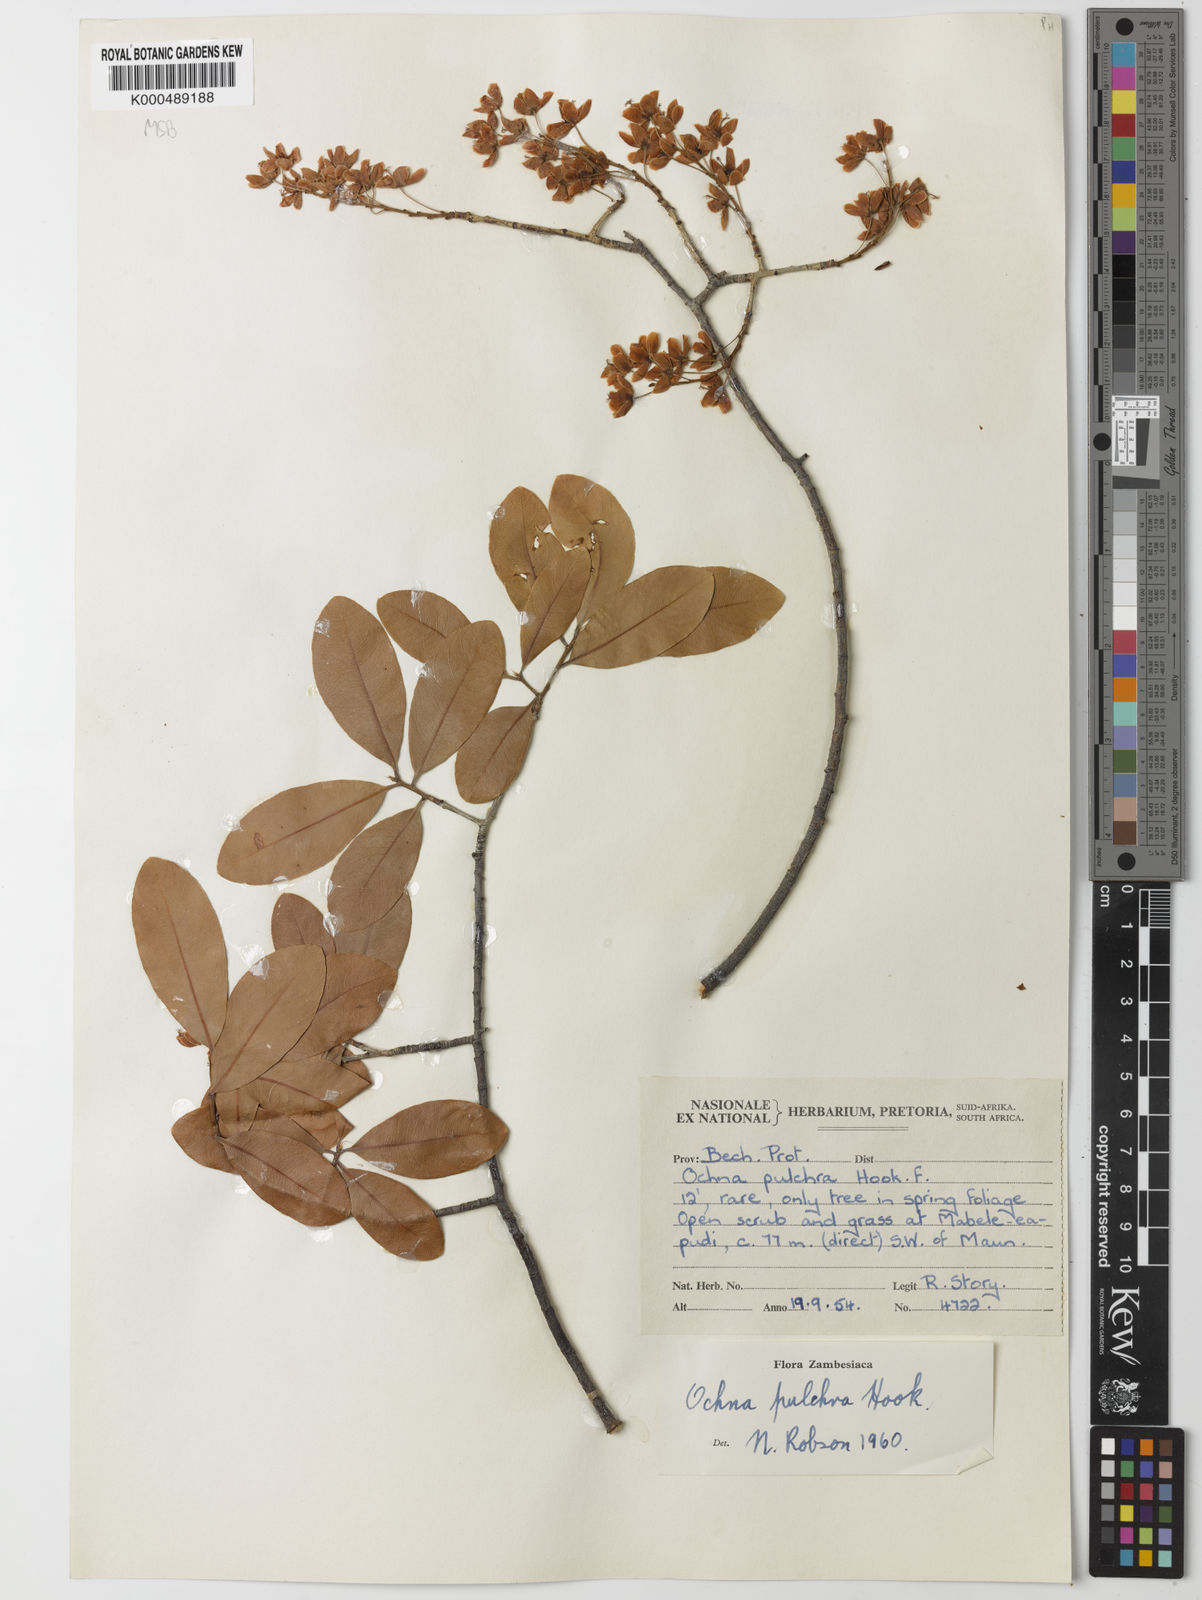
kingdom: Plantae
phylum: Tracheophyta
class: Magnoliopsida
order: Malpighiales
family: Ochnaceae
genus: Ochna
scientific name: Ochna pulchra
